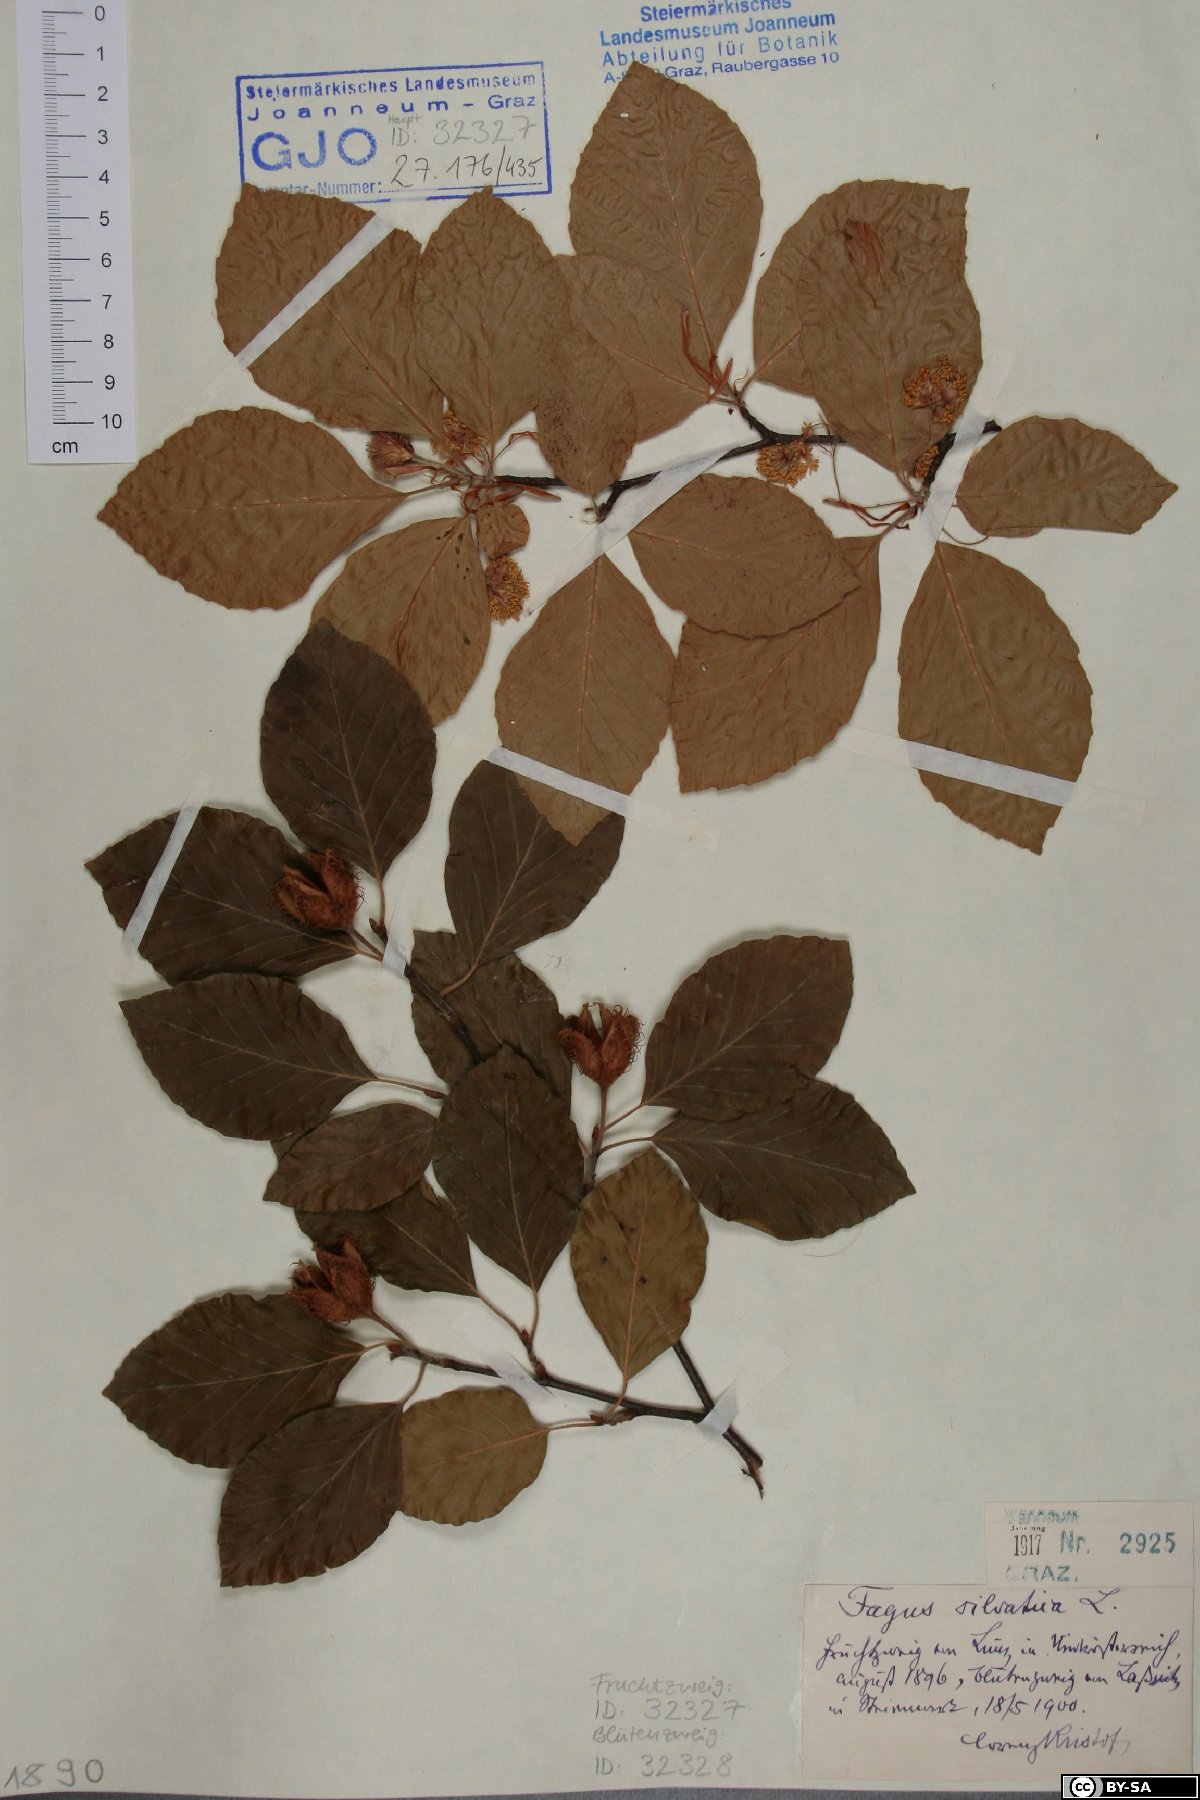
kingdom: Plantae
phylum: Tracheophyta
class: Magnoliopsida
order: Fagales
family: Fagaceae
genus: Fagus
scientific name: Fagus sylvatica
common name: Beech
